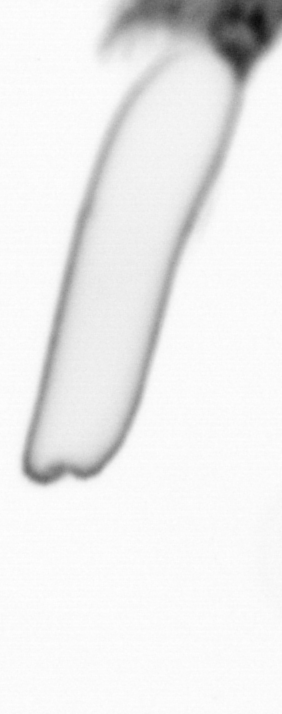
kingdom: Chromista
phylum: Ochrophyta
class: Bacillariophyceae
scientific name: Bacillariophyceae
